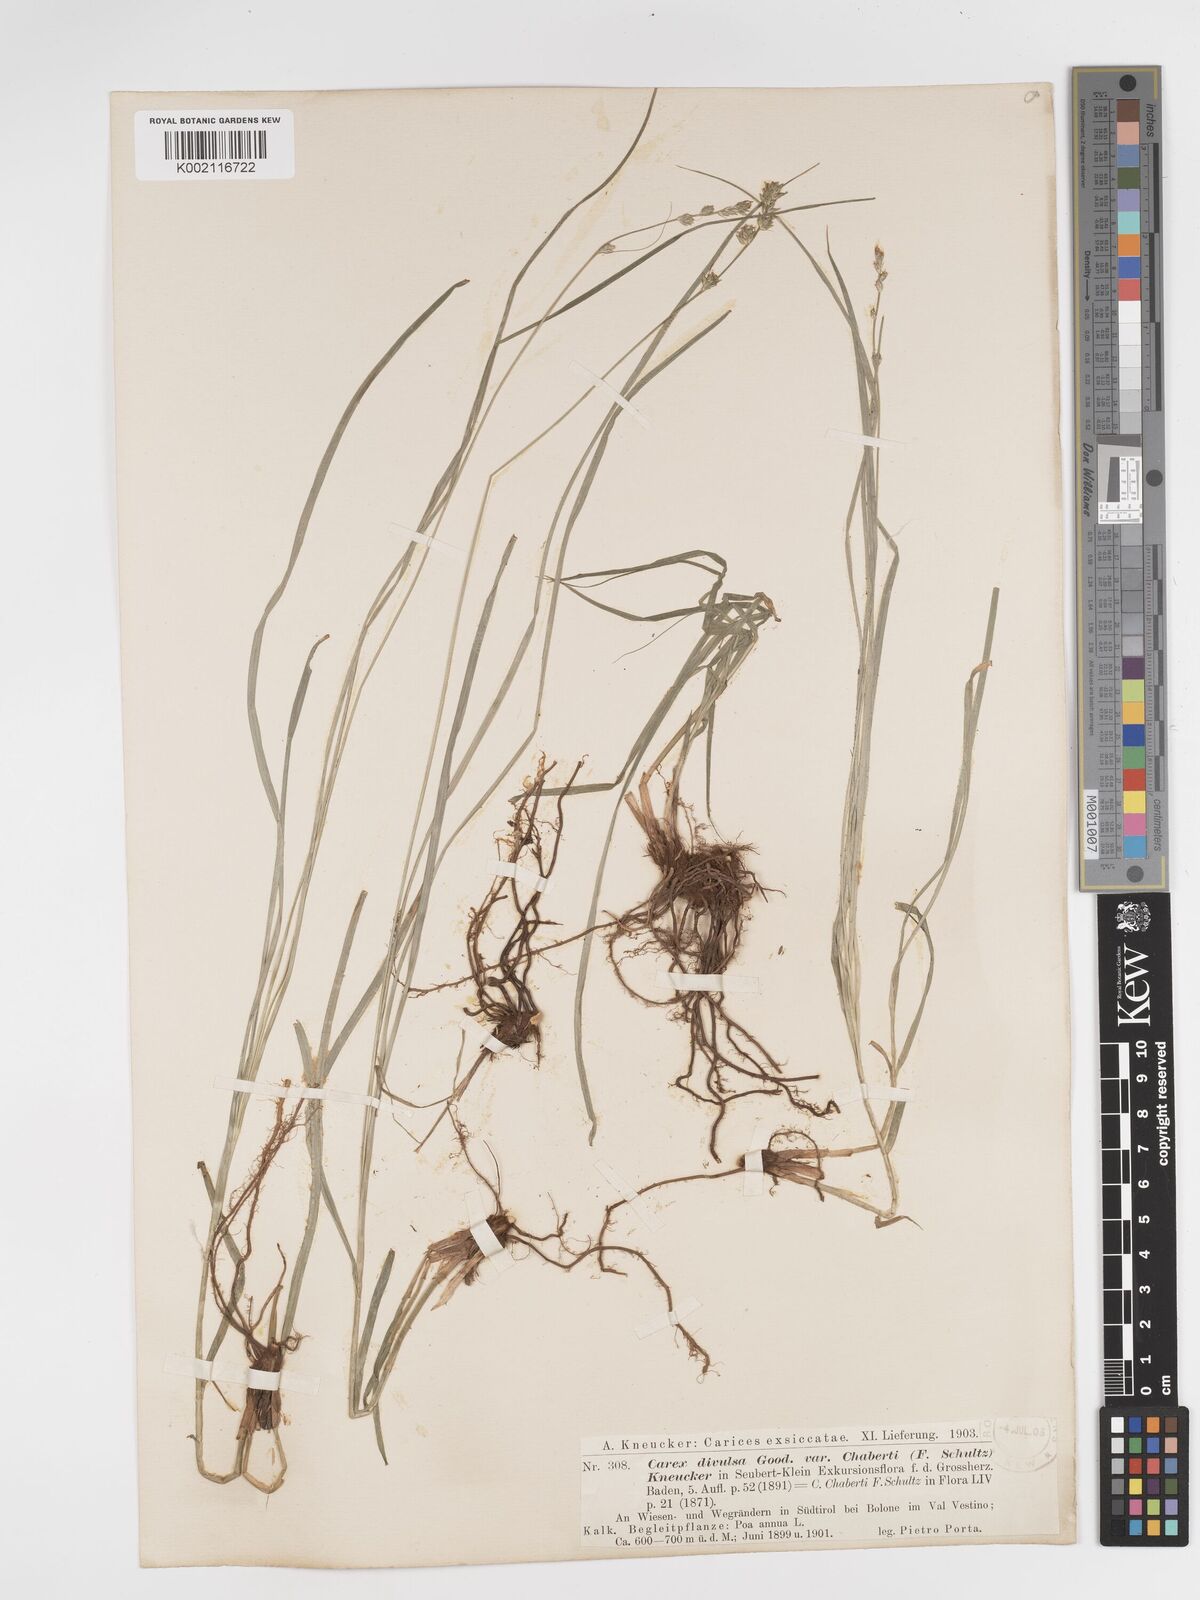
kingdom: Plantae
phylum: Tracheophyta
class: Liliopsida
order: Poales
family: Cyperaceae
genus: Carex
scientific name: Carex divulsa
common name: Grassland sedge
